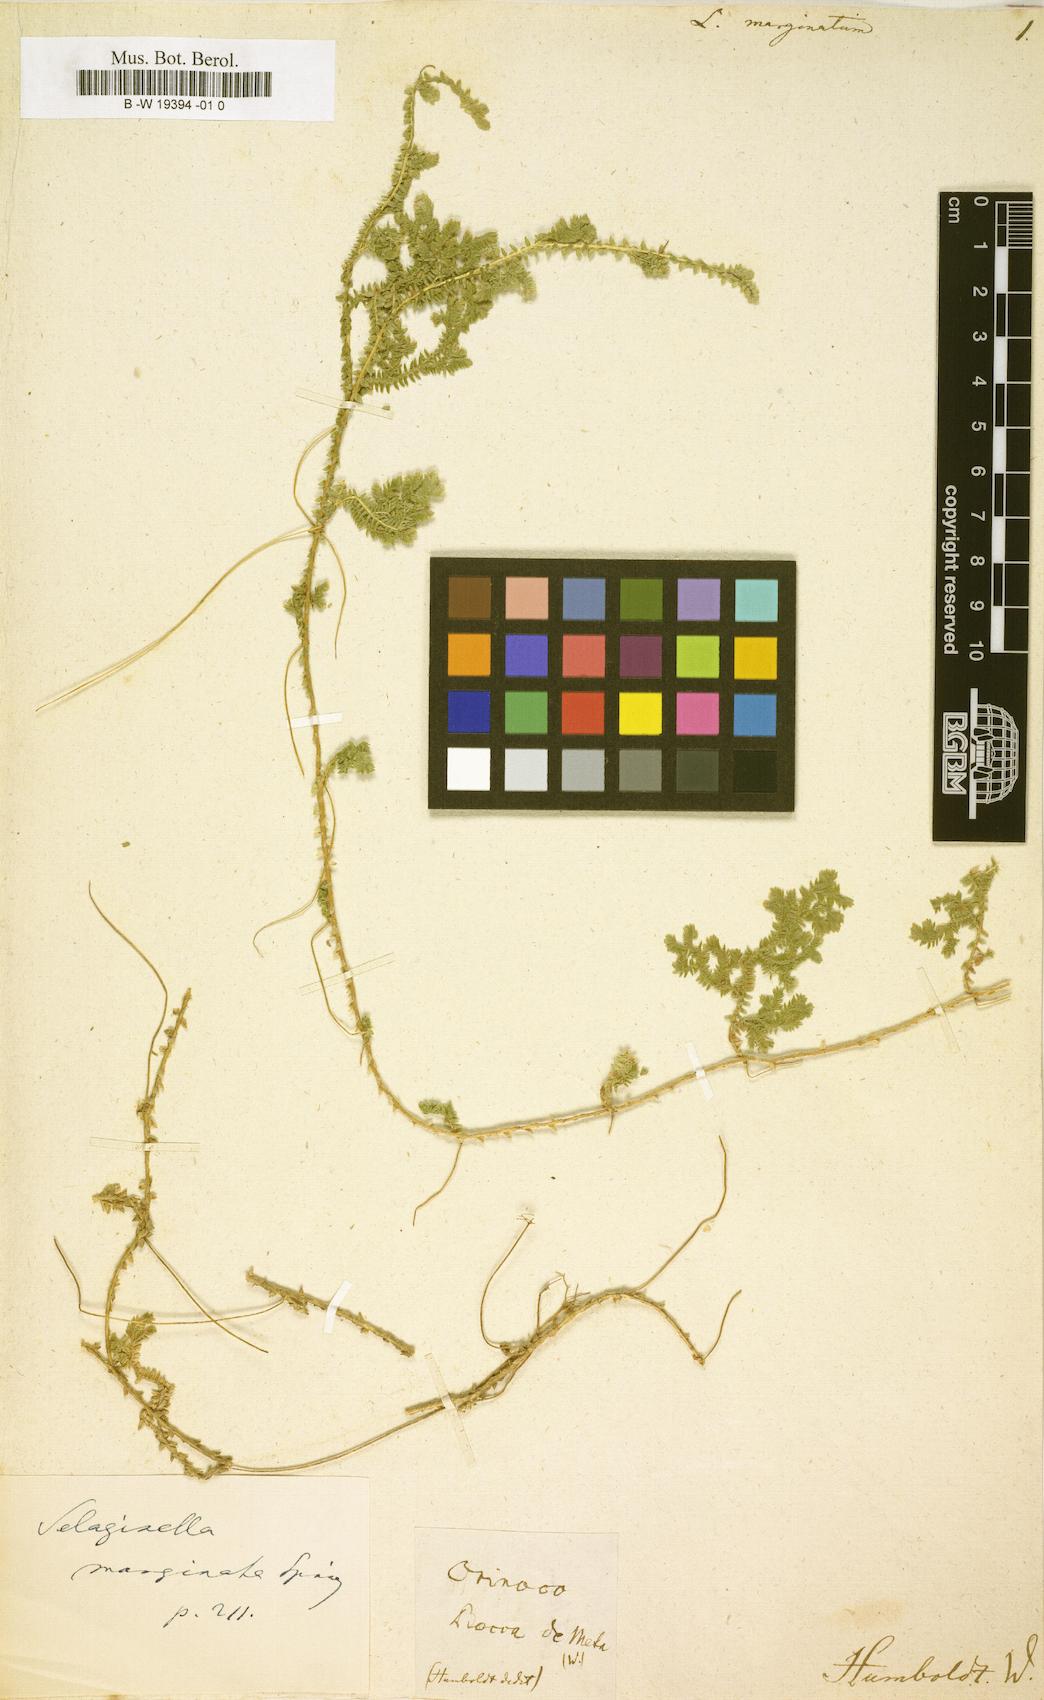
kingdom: Plantae
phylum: Tracheophyta
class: Lycopodiopsida
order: Selaginellales
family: Selaginellaceae
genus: Selaginella
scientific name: Selaginella marginata
